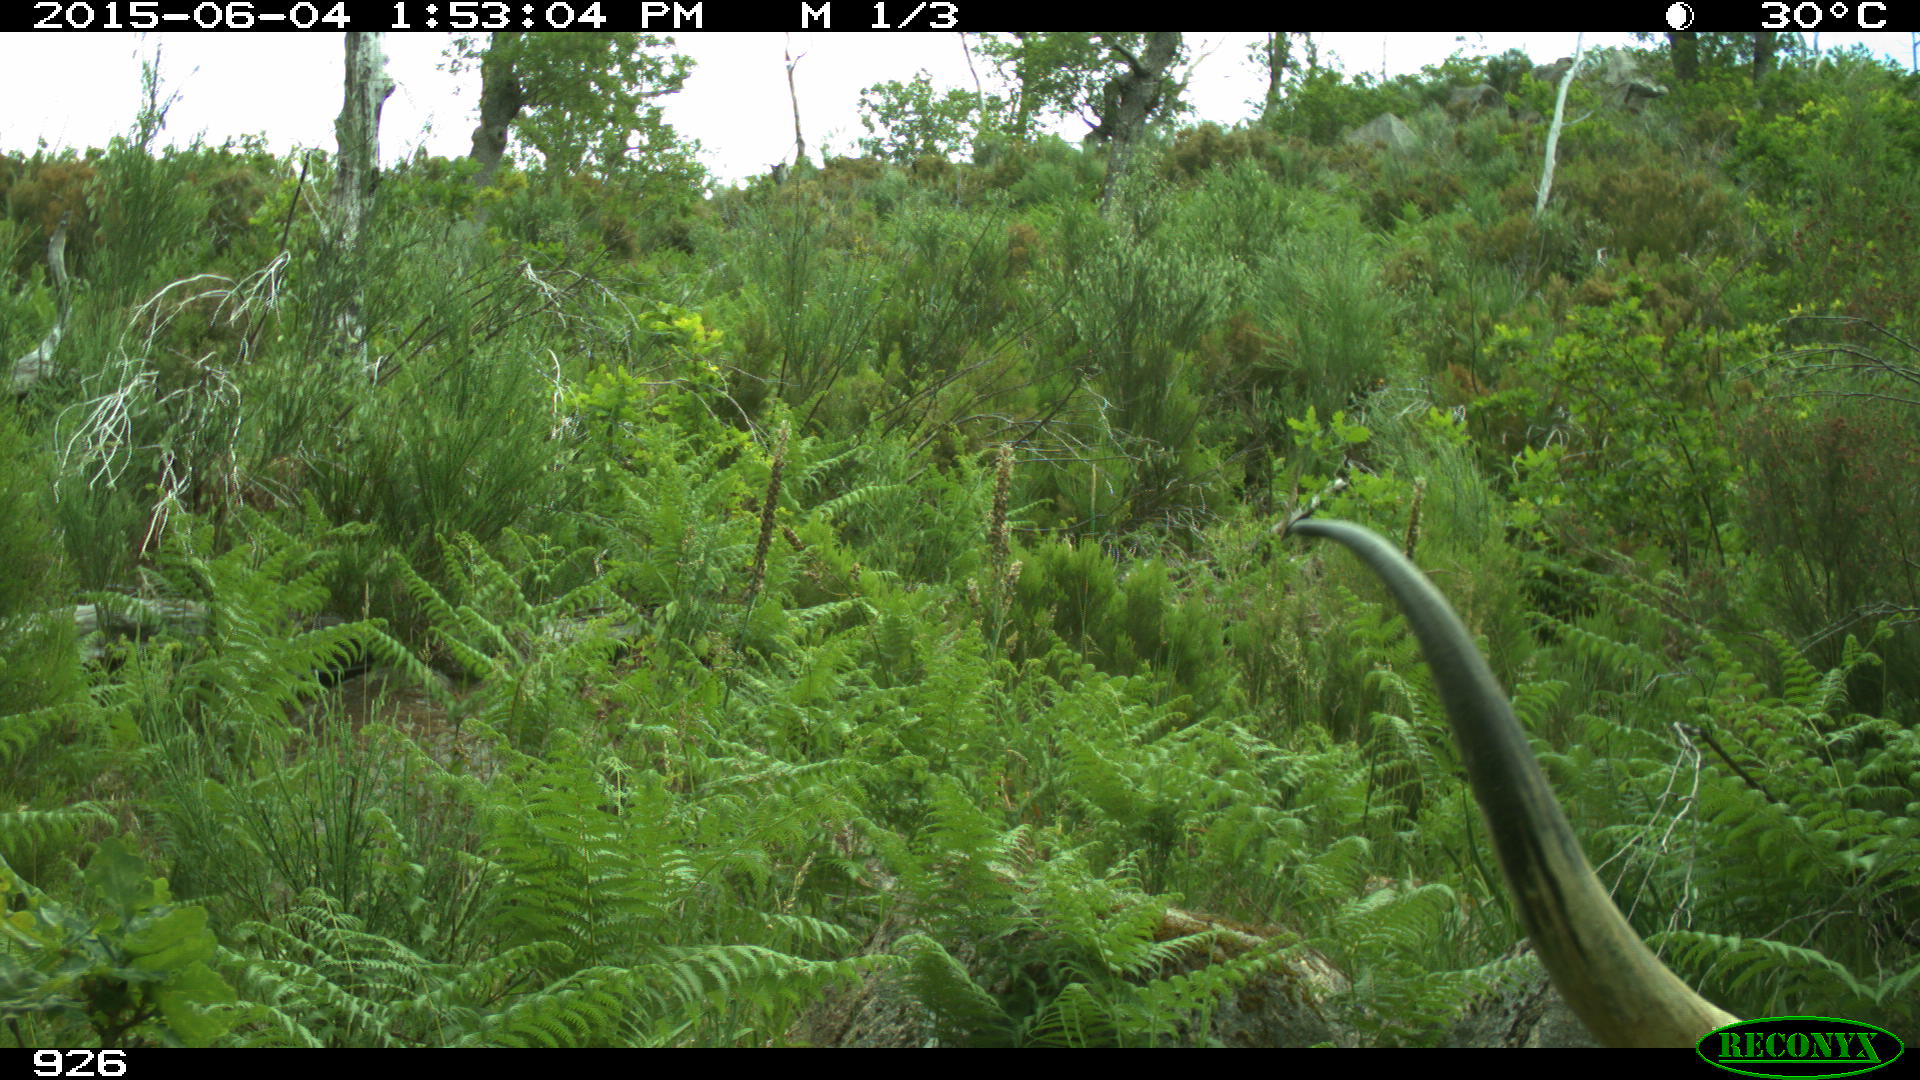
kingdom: Animalia
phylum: Chordata
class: Mammalia
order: Artiodactyla
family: Bovidae
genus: Bos
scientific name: Bos taurus
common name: Domesticated cattle
